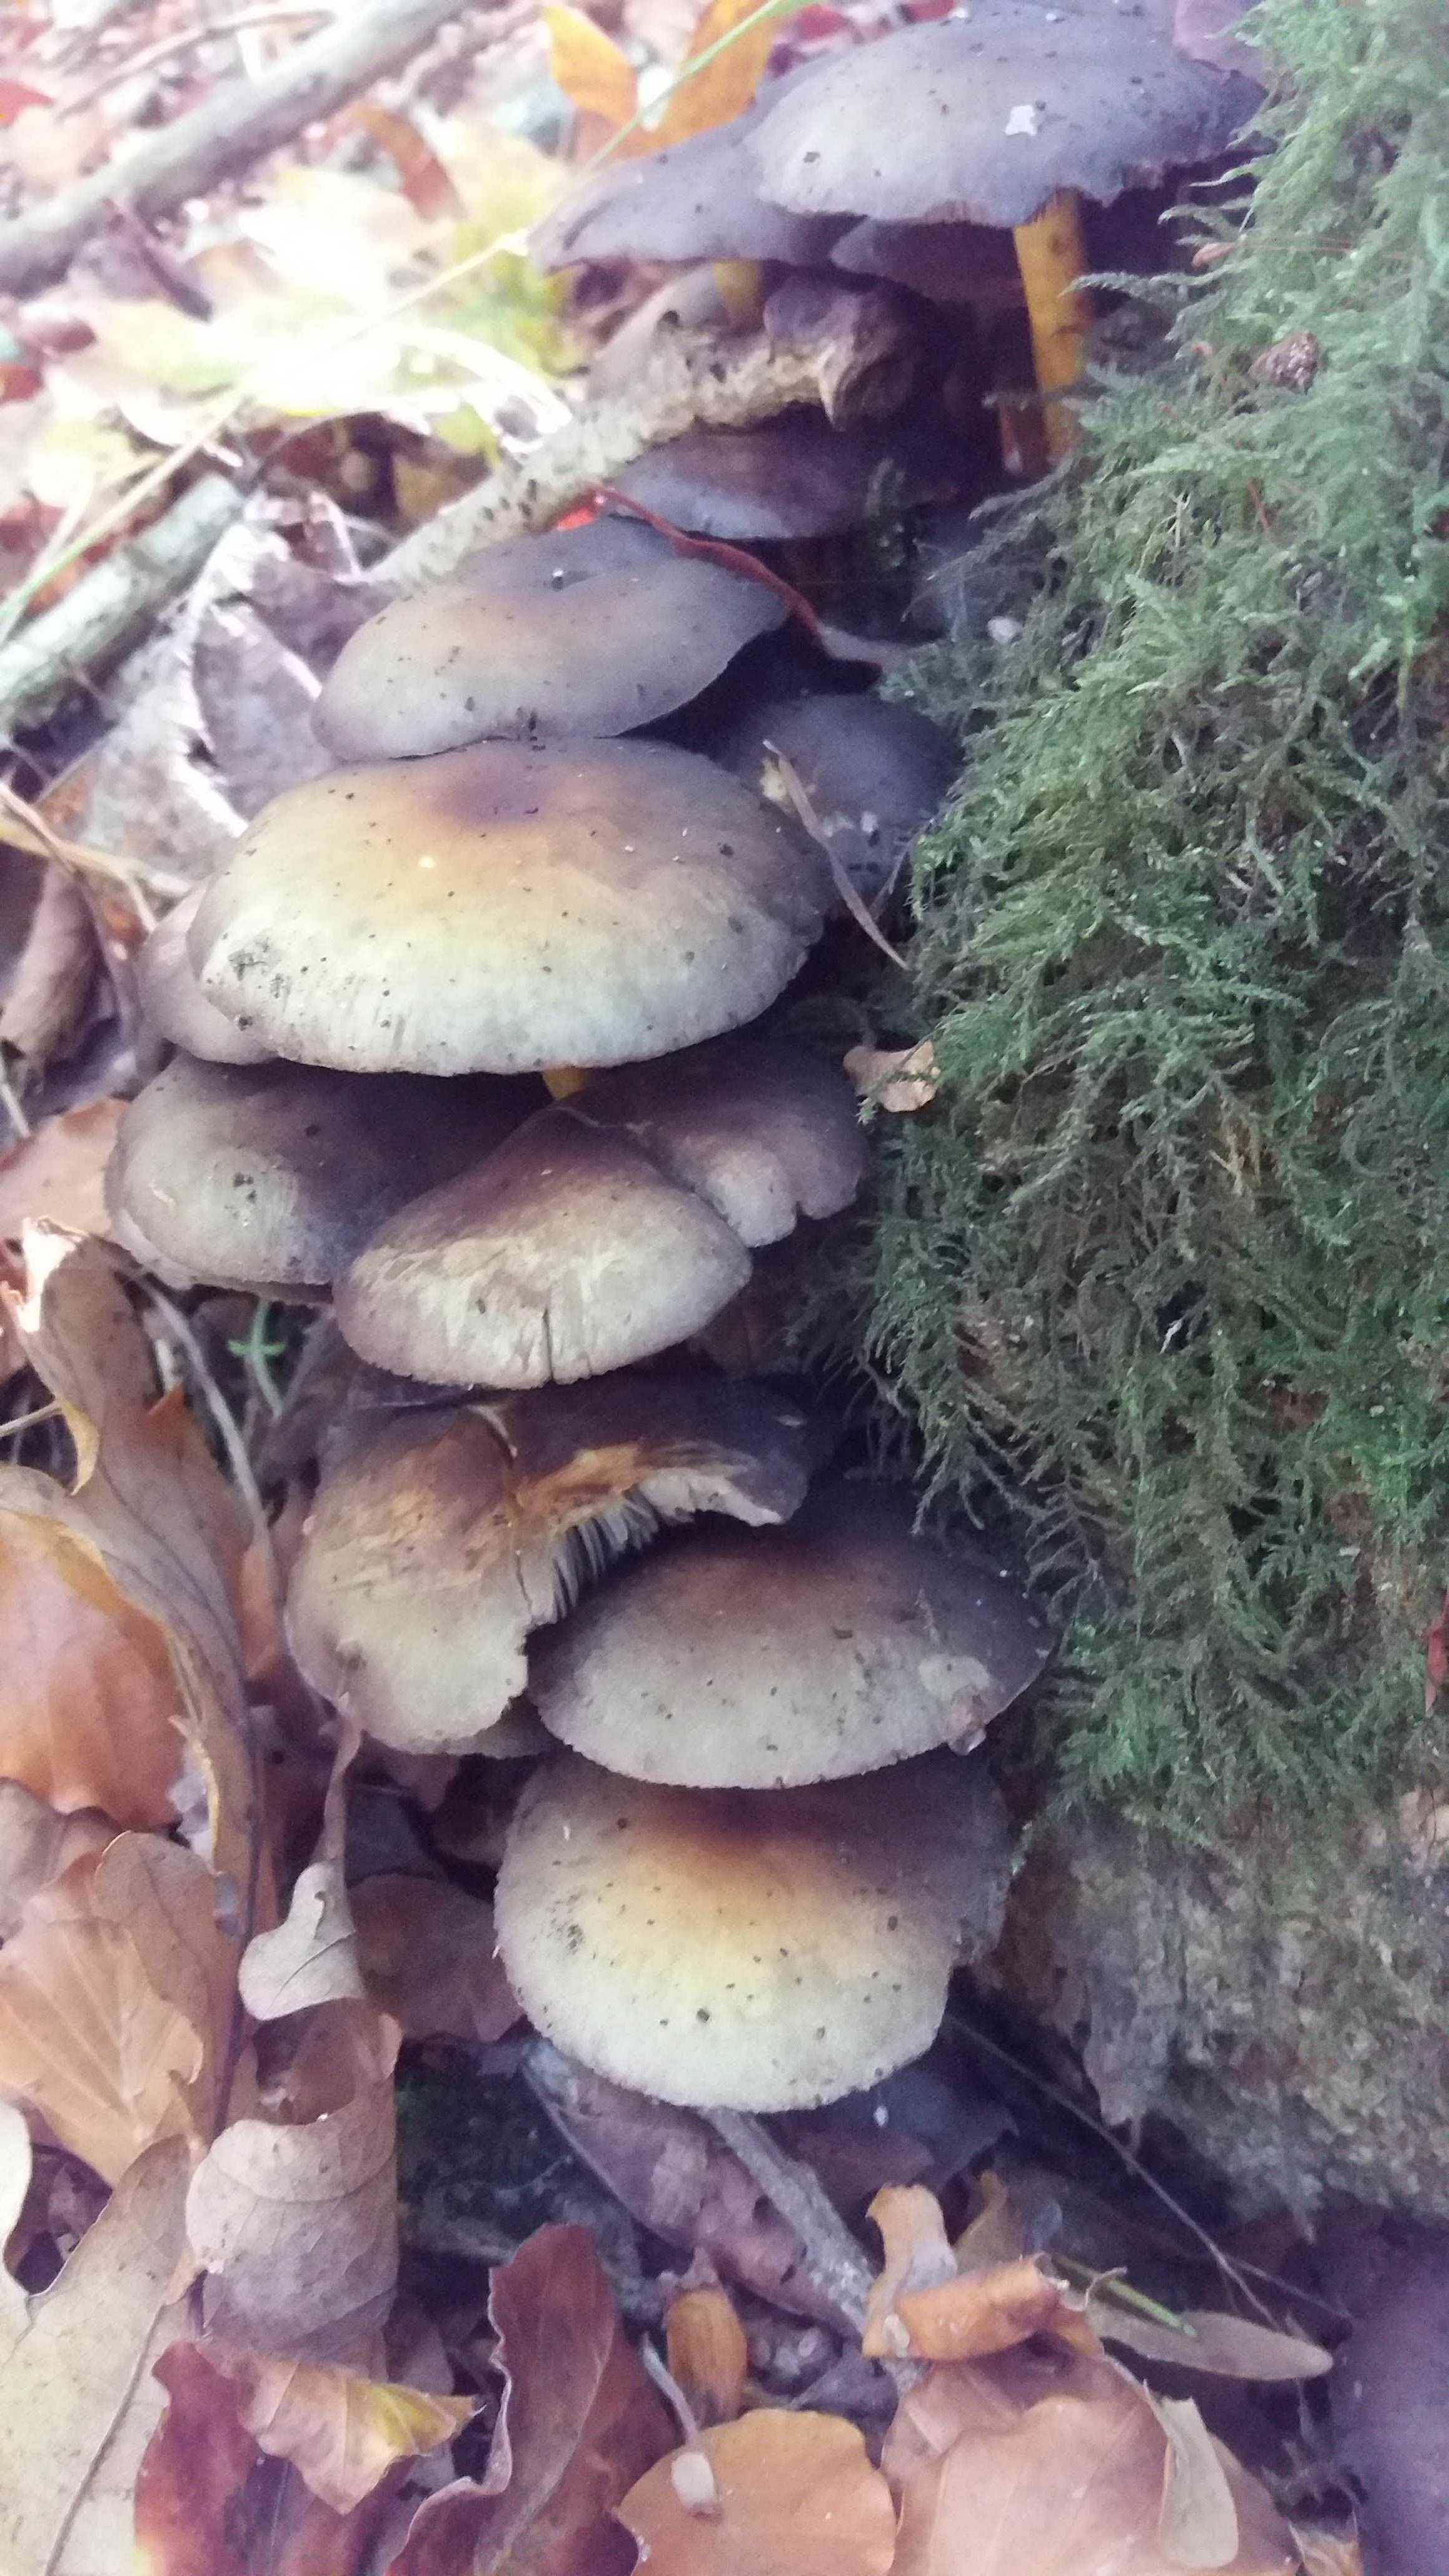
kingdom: Fungi
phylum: Basidiomycota
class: Agaricomycetes
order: Agaricales
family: Strophariaceae
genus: Hypholoma
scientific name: Hypholoma fasciculare
